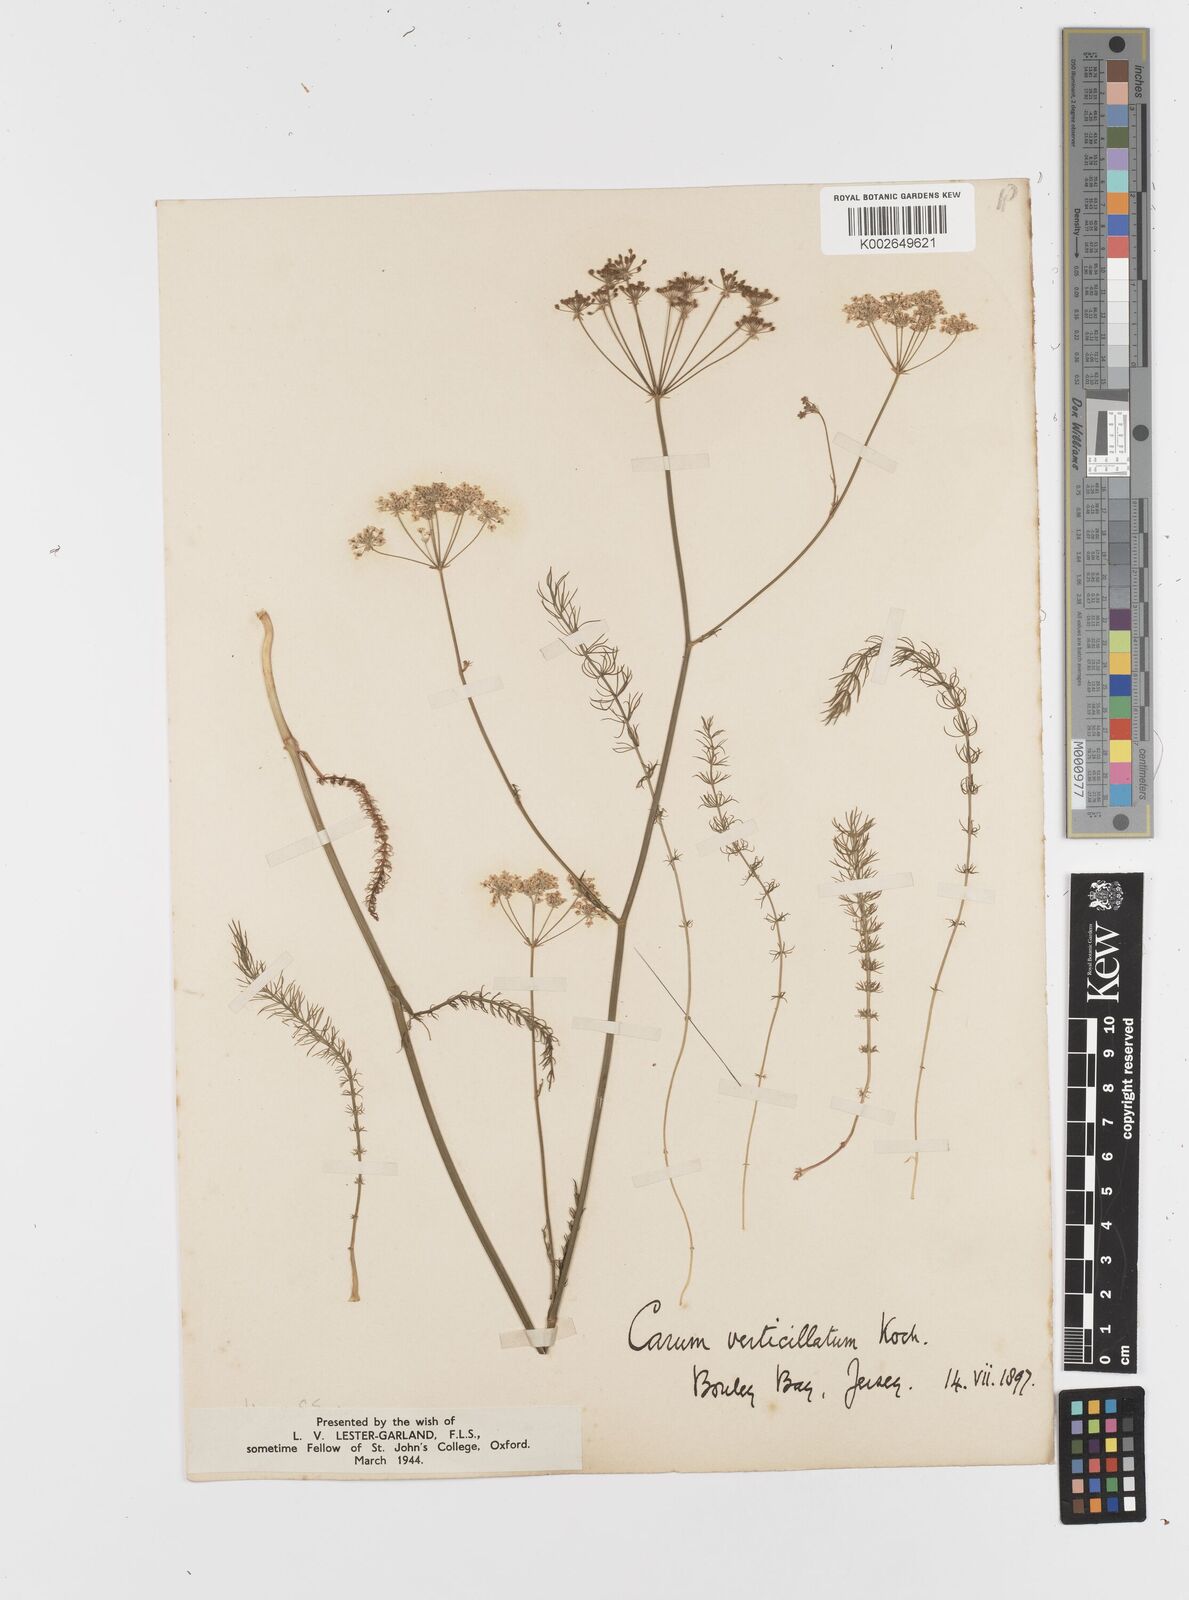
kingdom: Plantae
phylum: Tracheophyta
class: Magnoliopsida
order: Apiales
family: Apiaceae
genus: Trocdaris
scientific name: Trocdaris verticillatum
